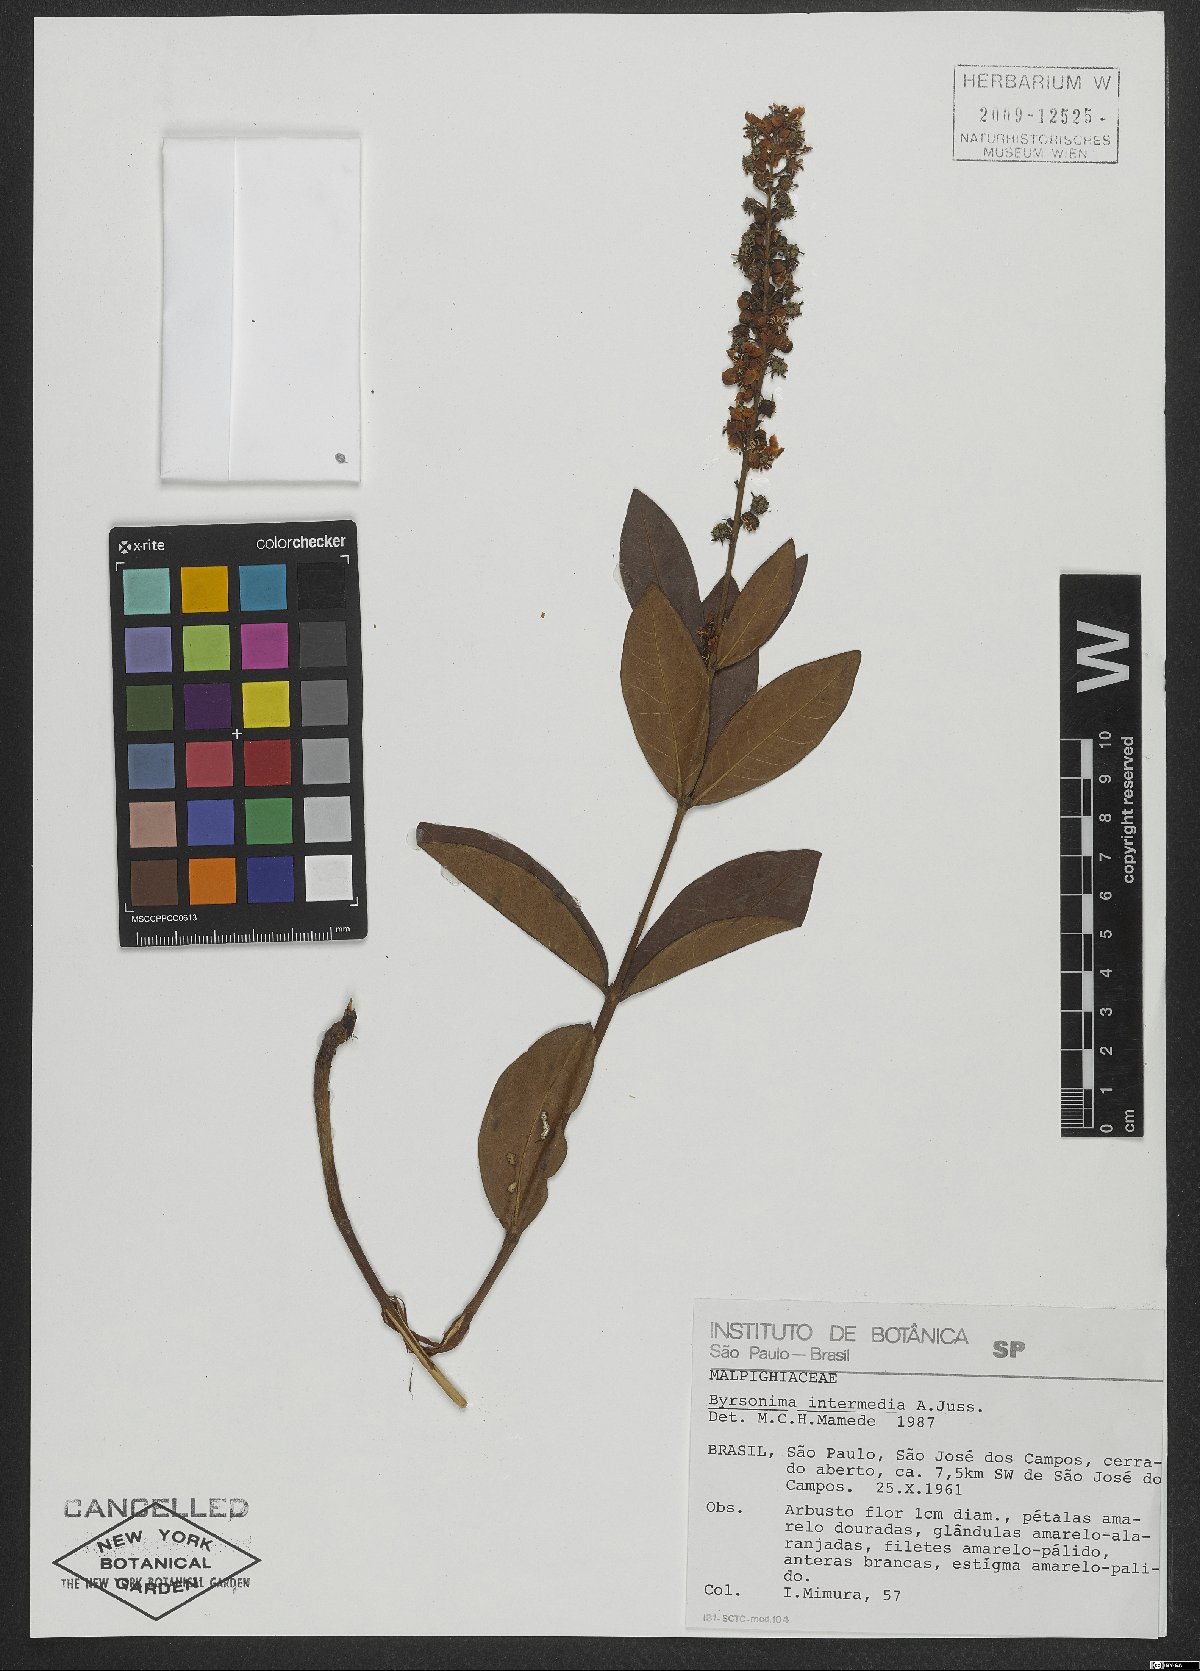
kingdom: Plantae
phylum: Tracheophyta
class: Magnoliopsida
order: Malpighiales
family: Malpighiaceae
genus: Byrsonima
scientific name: Byrsonima intermedia
